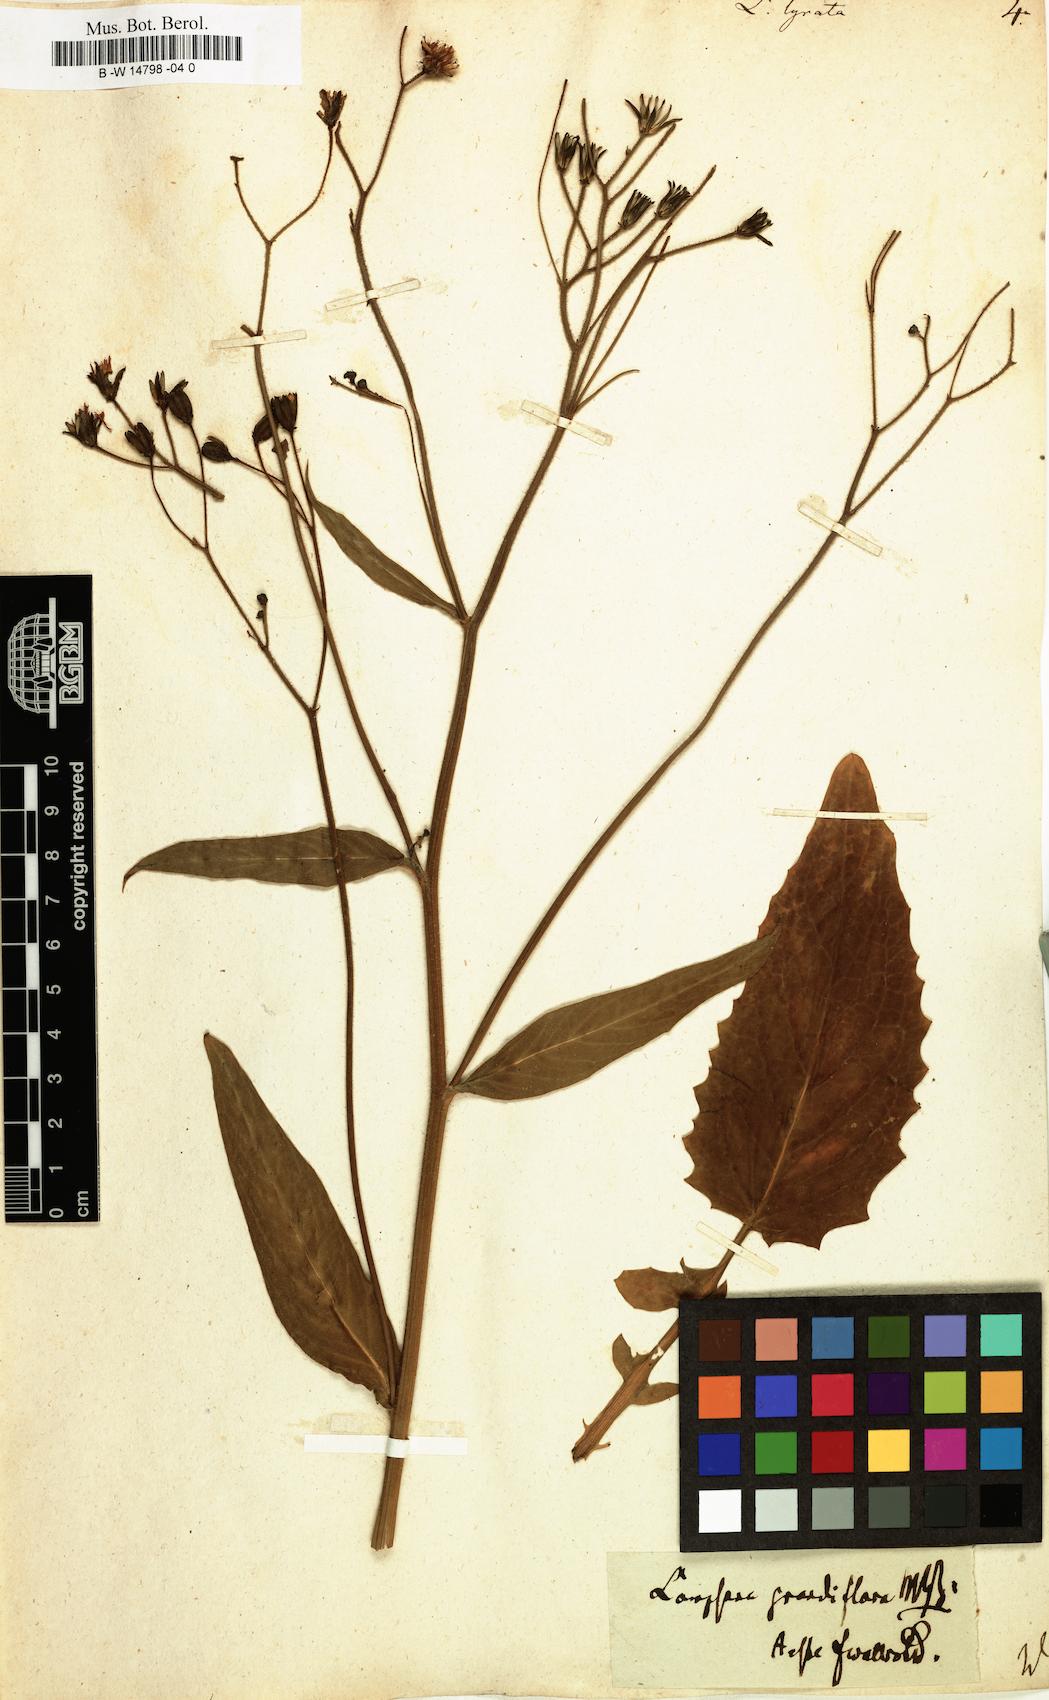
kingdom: Plantae
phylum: Tracheophyta
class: Magnoliopsida
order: Asterales
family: Asteraceae
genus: Lapsana
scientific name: Lapsana communis
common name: Nipplewort
